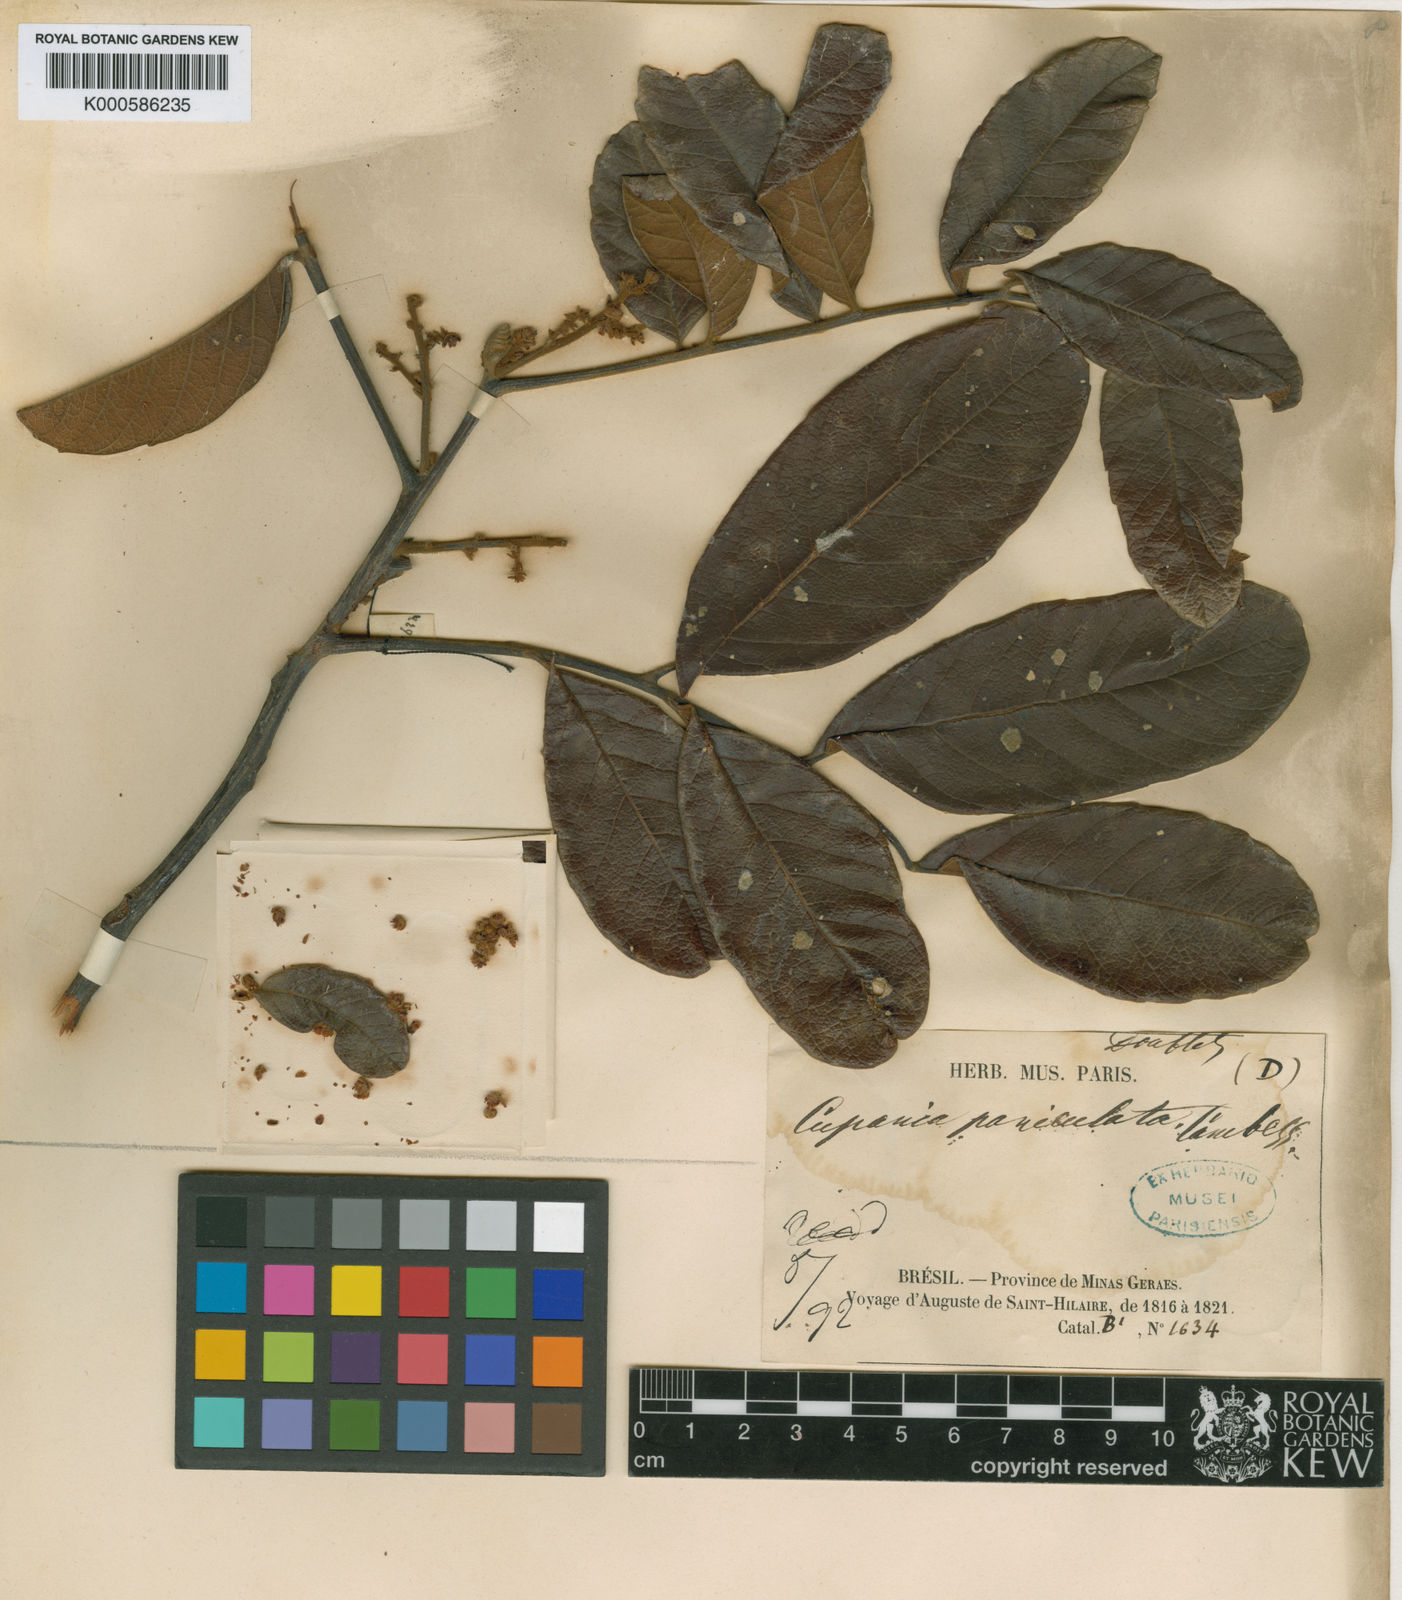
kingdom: Plantae
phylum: Tracheophyta
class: Magnoliopsida
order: Sapindales
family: Sapindaceae
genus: Cupania
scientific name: Cupania paniculata
